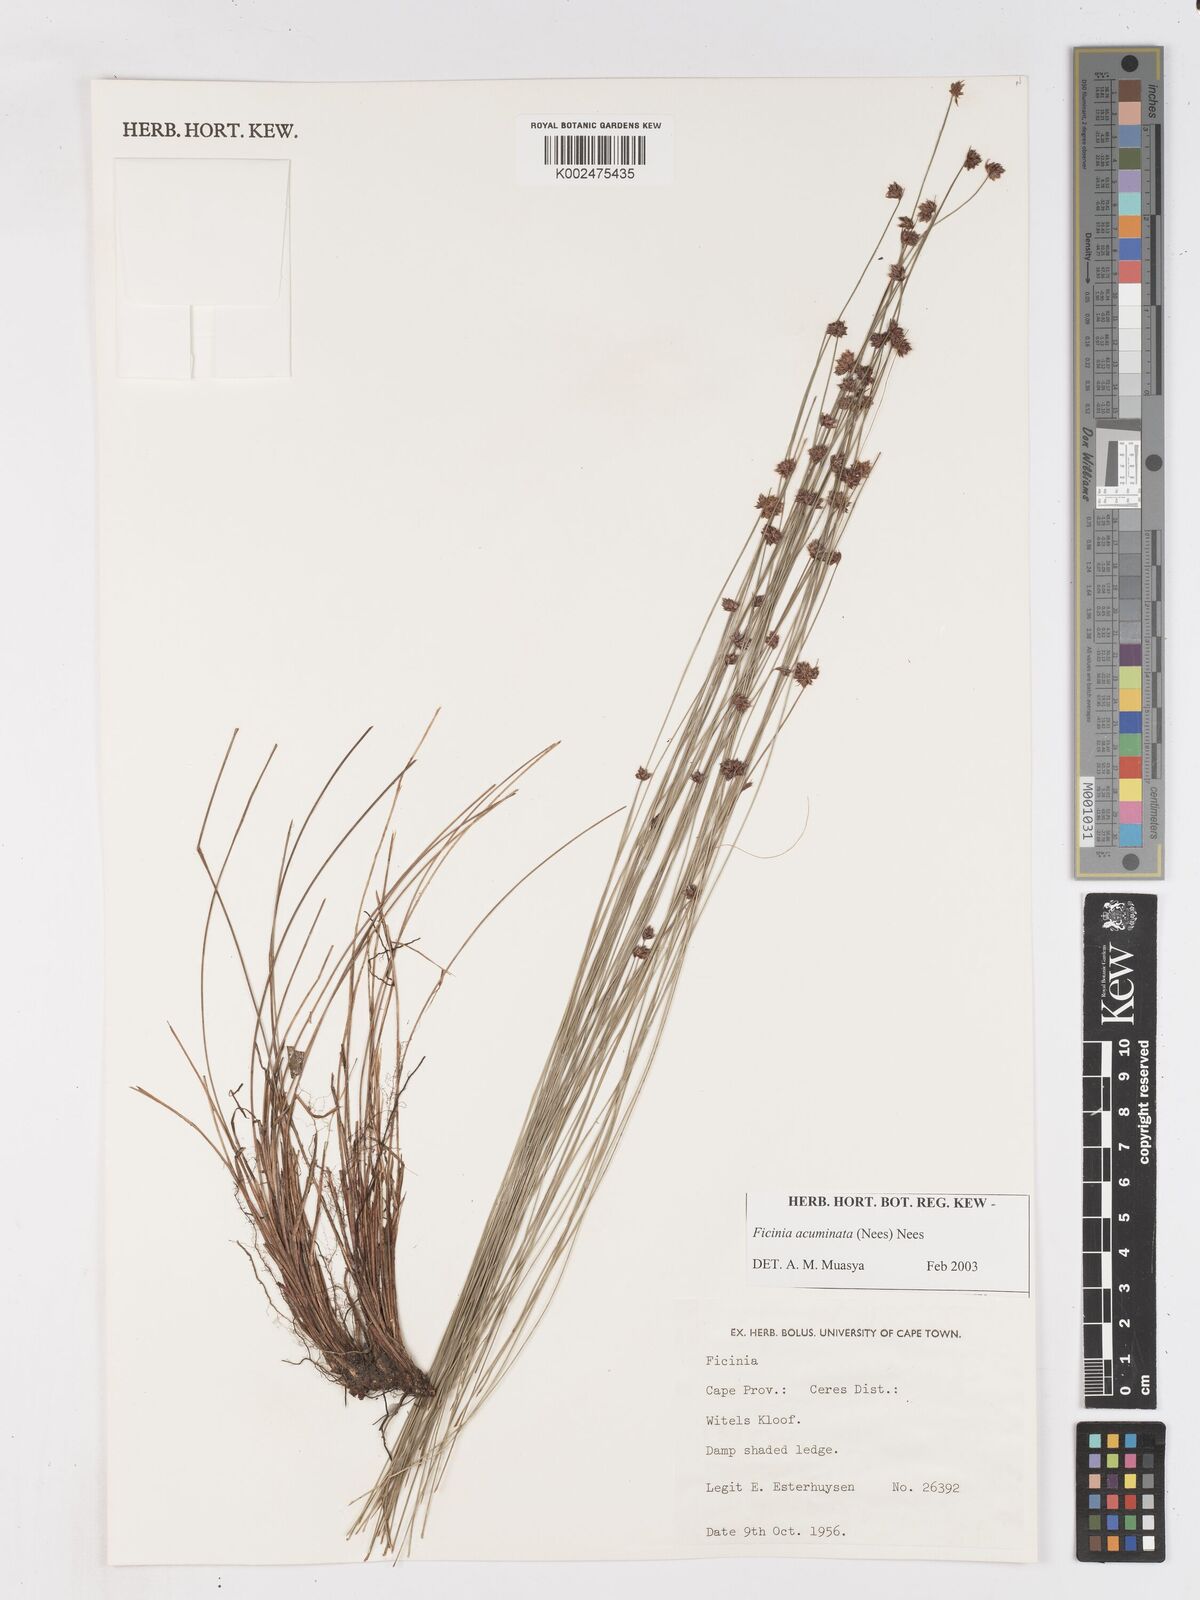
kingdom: Plantae
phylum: Tracheophyta
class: Liliopsida
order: Poales
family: Cyperaceae
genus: Ficinia
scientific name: Ficinia acuminata
